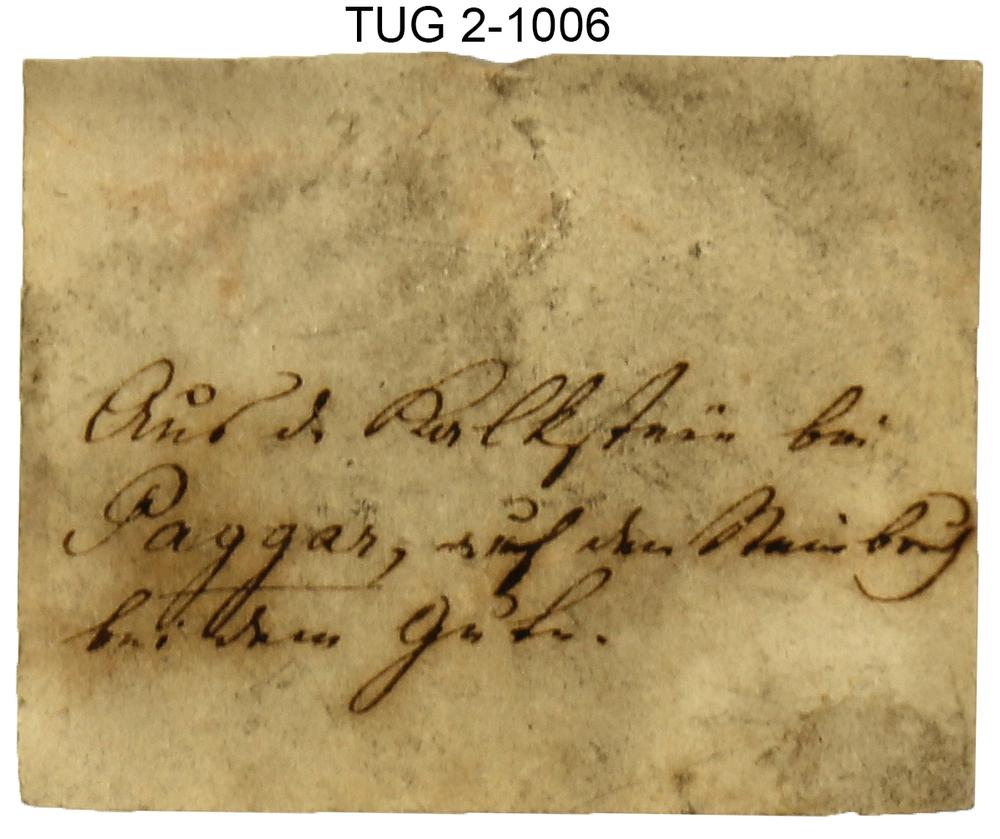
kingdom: Animalia
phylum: Brachiopoda
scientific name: Brachiopoda
